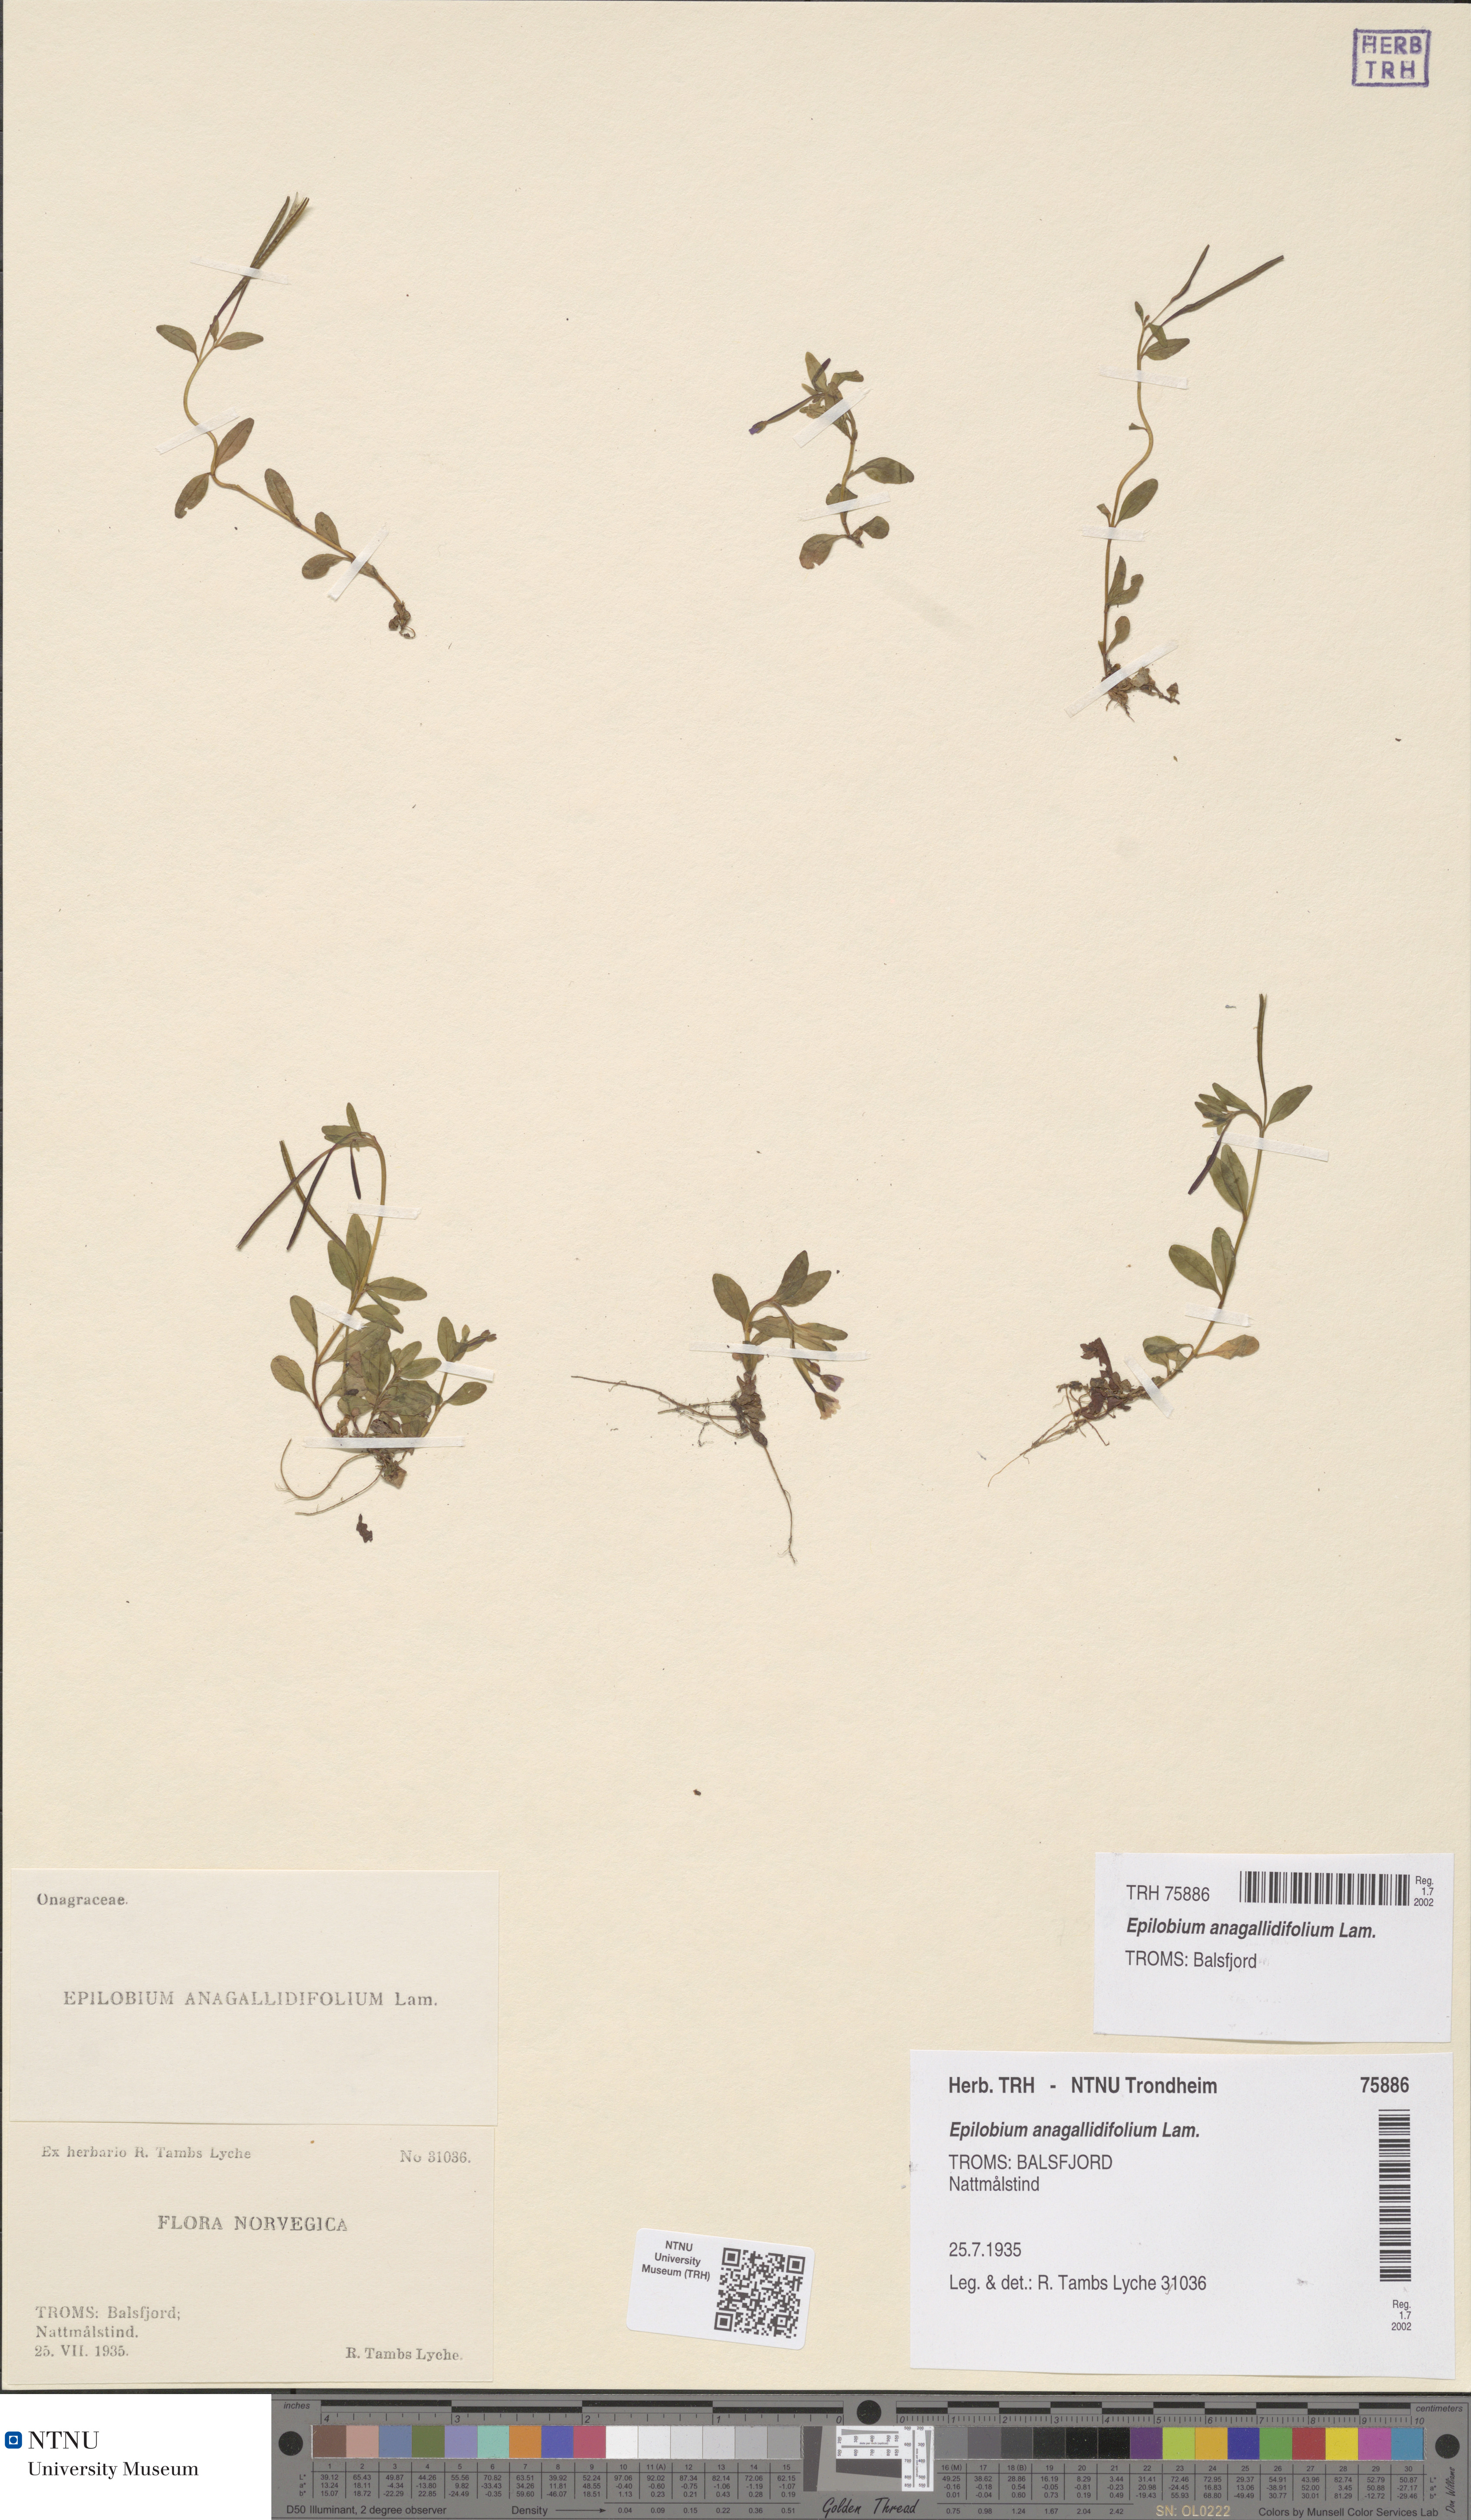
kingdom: Plantae
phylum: Tracheophyta
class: Magnoliopsida
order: Myrtales
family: Onagraceae
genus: Epilobium
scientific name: Epilobium anagallidifolium
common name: Alpine willowherb
